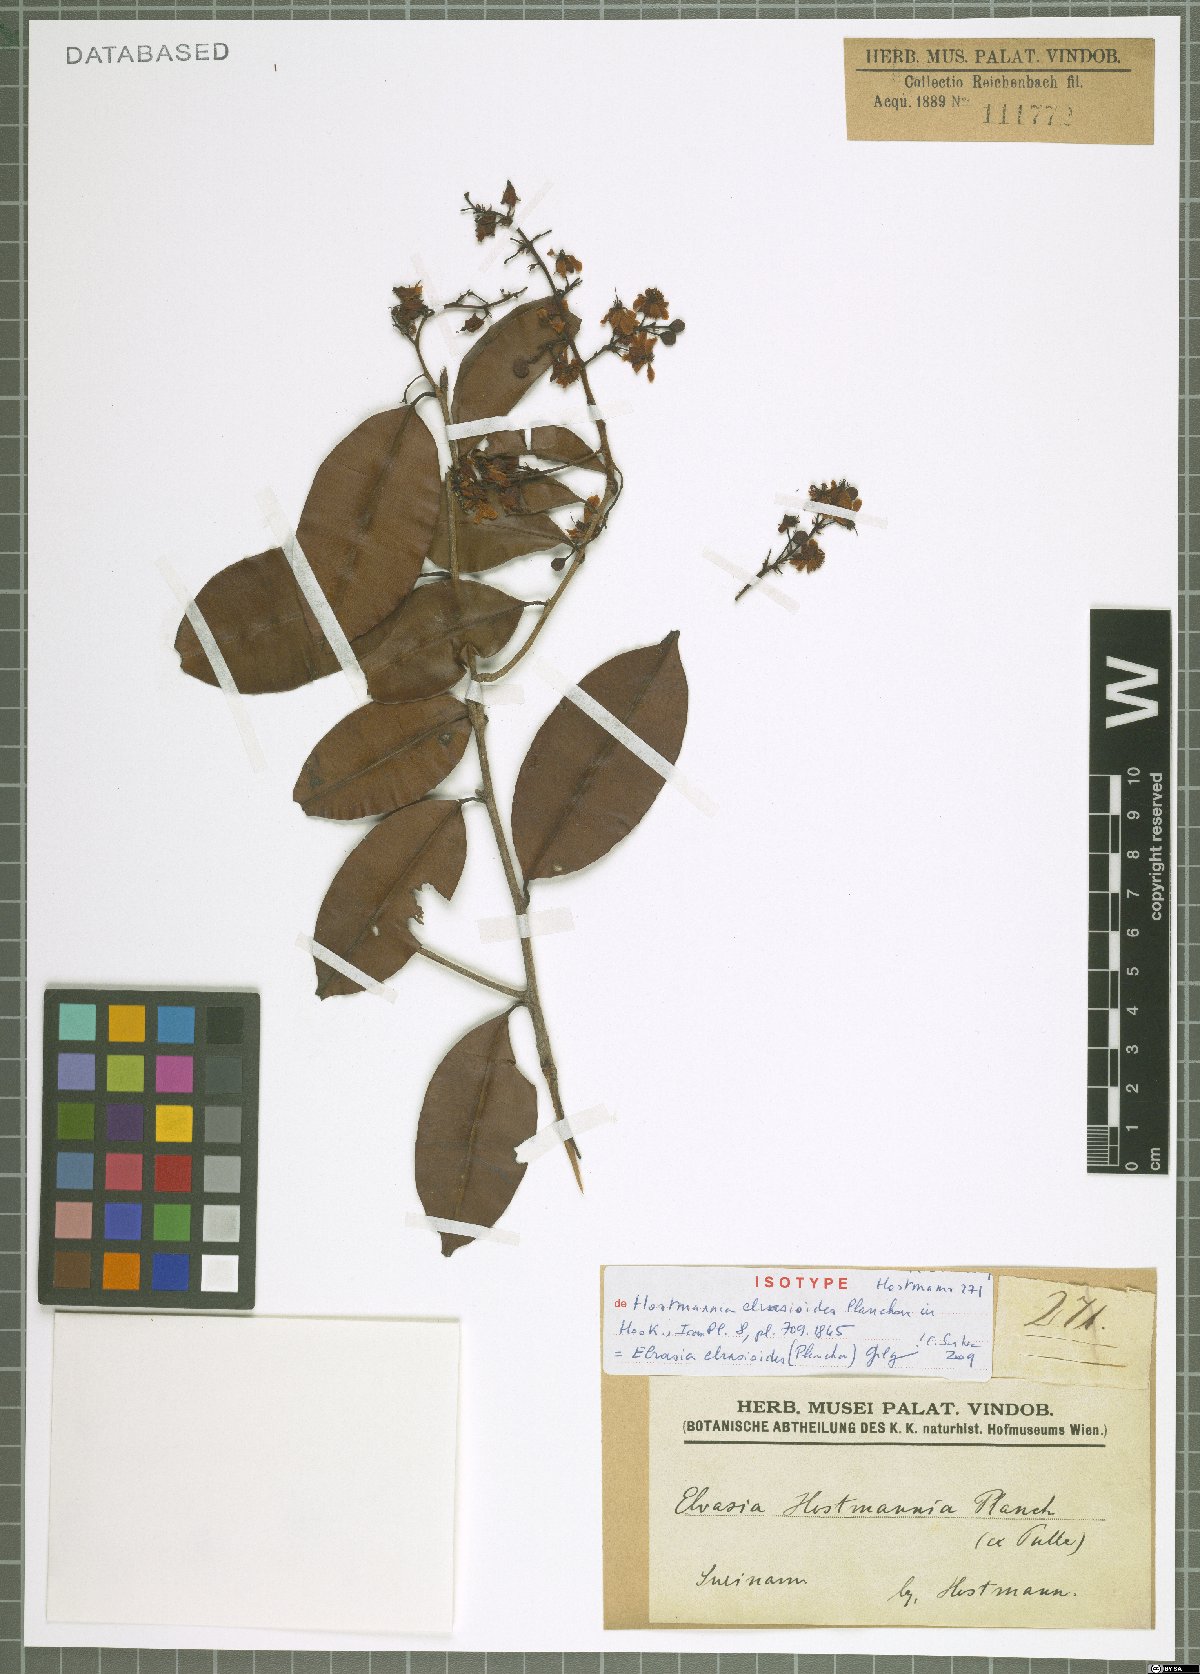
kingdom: Plantae
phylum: Tracheophyta
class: Magnoliopsida
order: Malpighiales
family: Ochnaceae
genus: Elvasia
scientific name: Elvasia elvasioides
